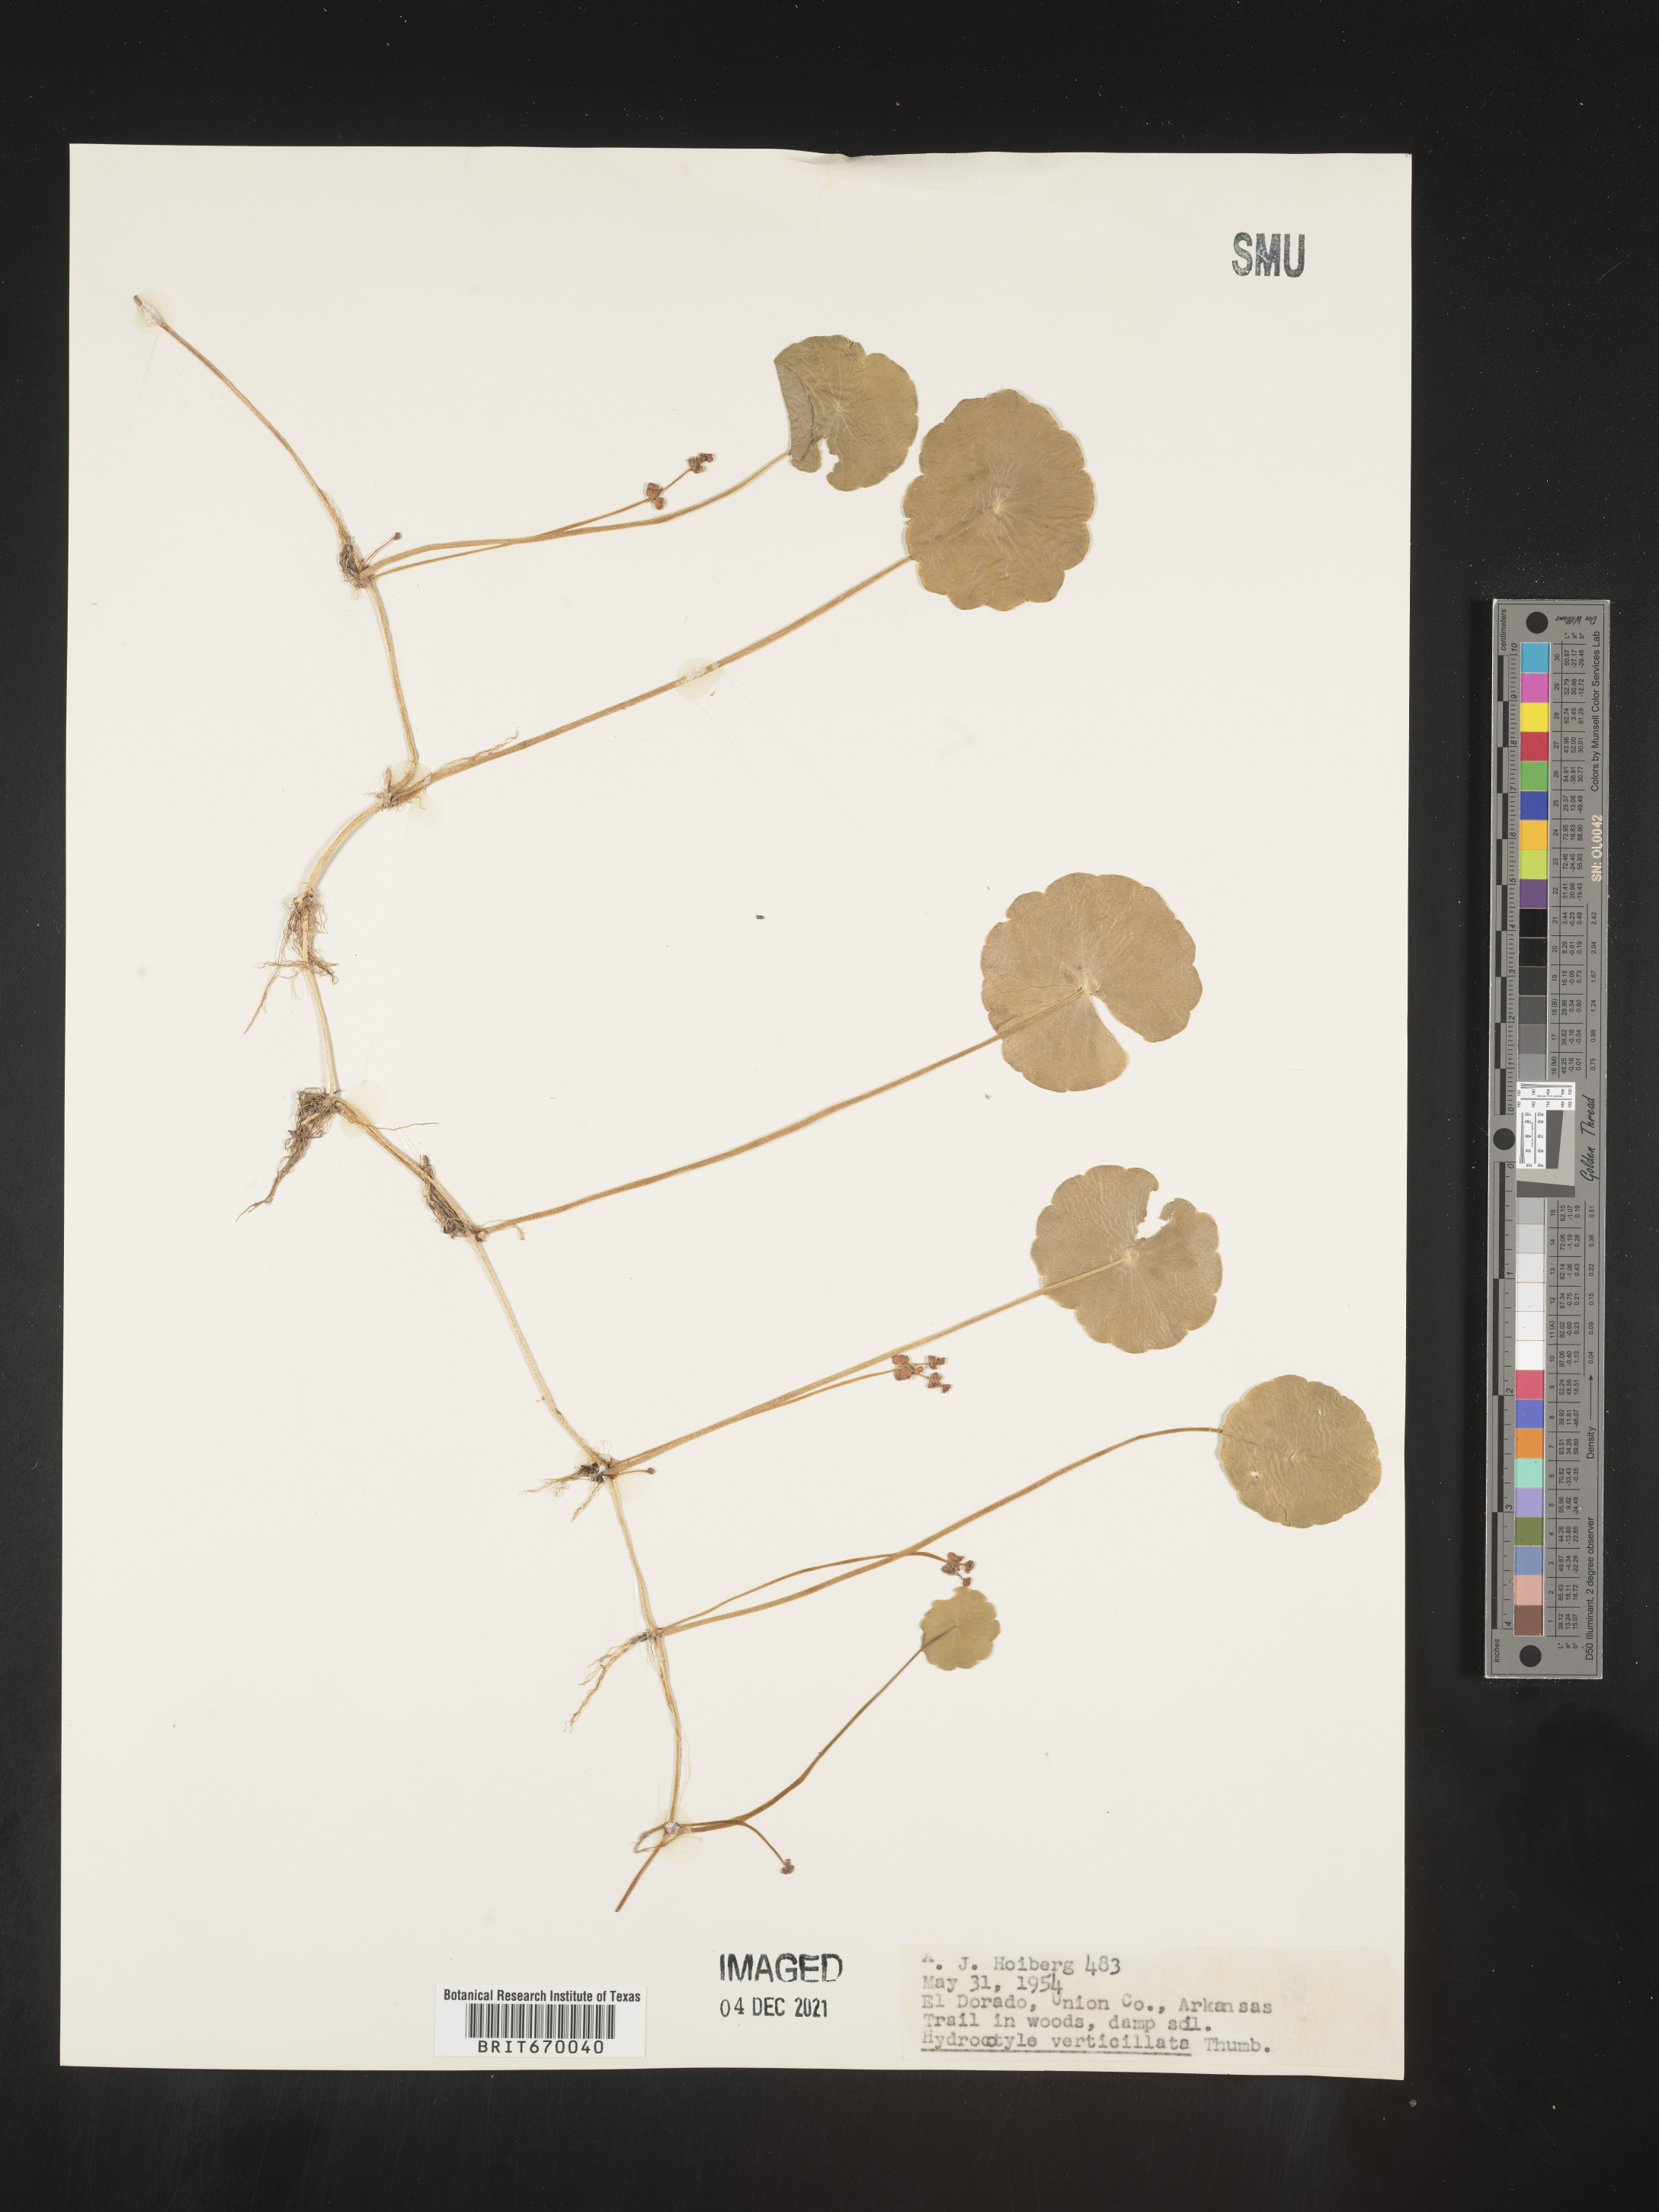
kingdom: Plantae
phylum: Tracheophyta
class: Magnoliopsida
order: Apiales
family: Araliaceae
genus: Hydrocotyle
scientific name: Hydrocotyle verticillata
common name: Whorled marshpennywort
